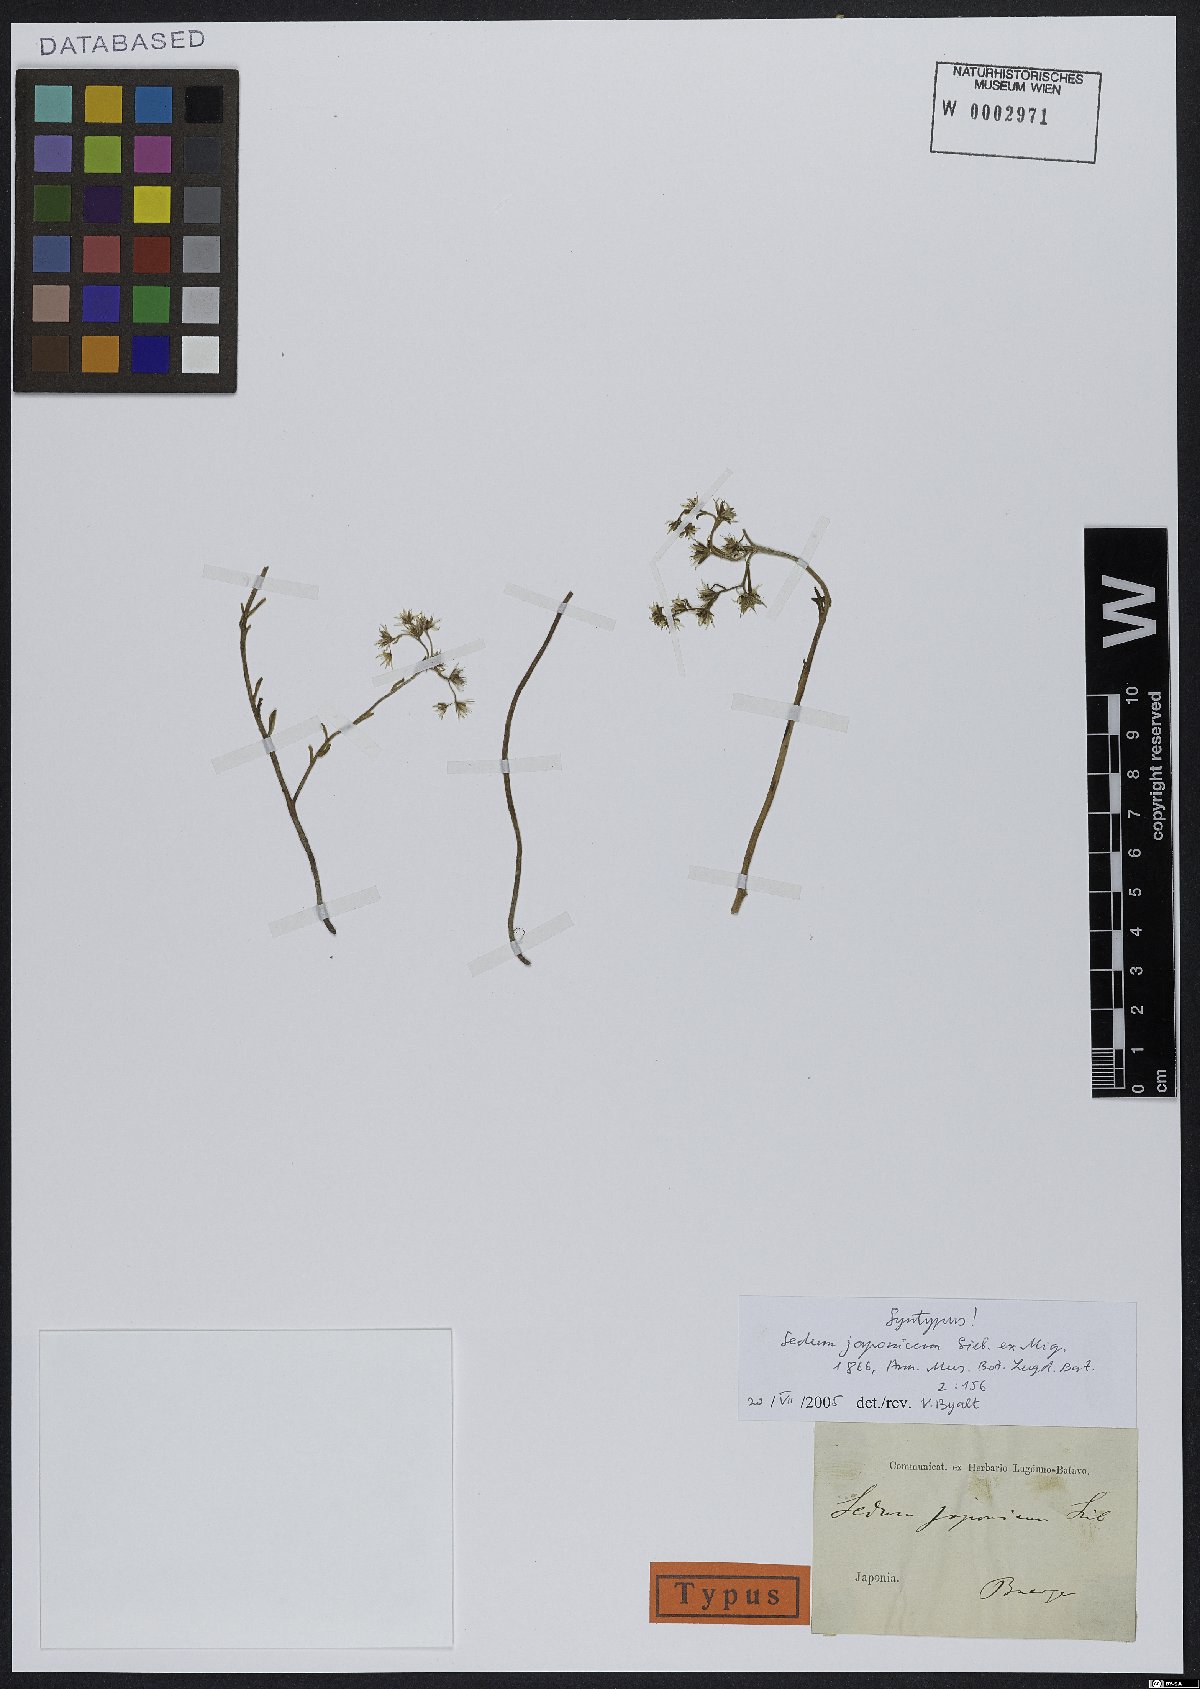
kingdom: Plantae
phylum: Tracheophyta
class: Magnoliopsida
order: Saxifragales
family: Crassulaceae
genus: Sedum
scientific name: Sedum japonicum
